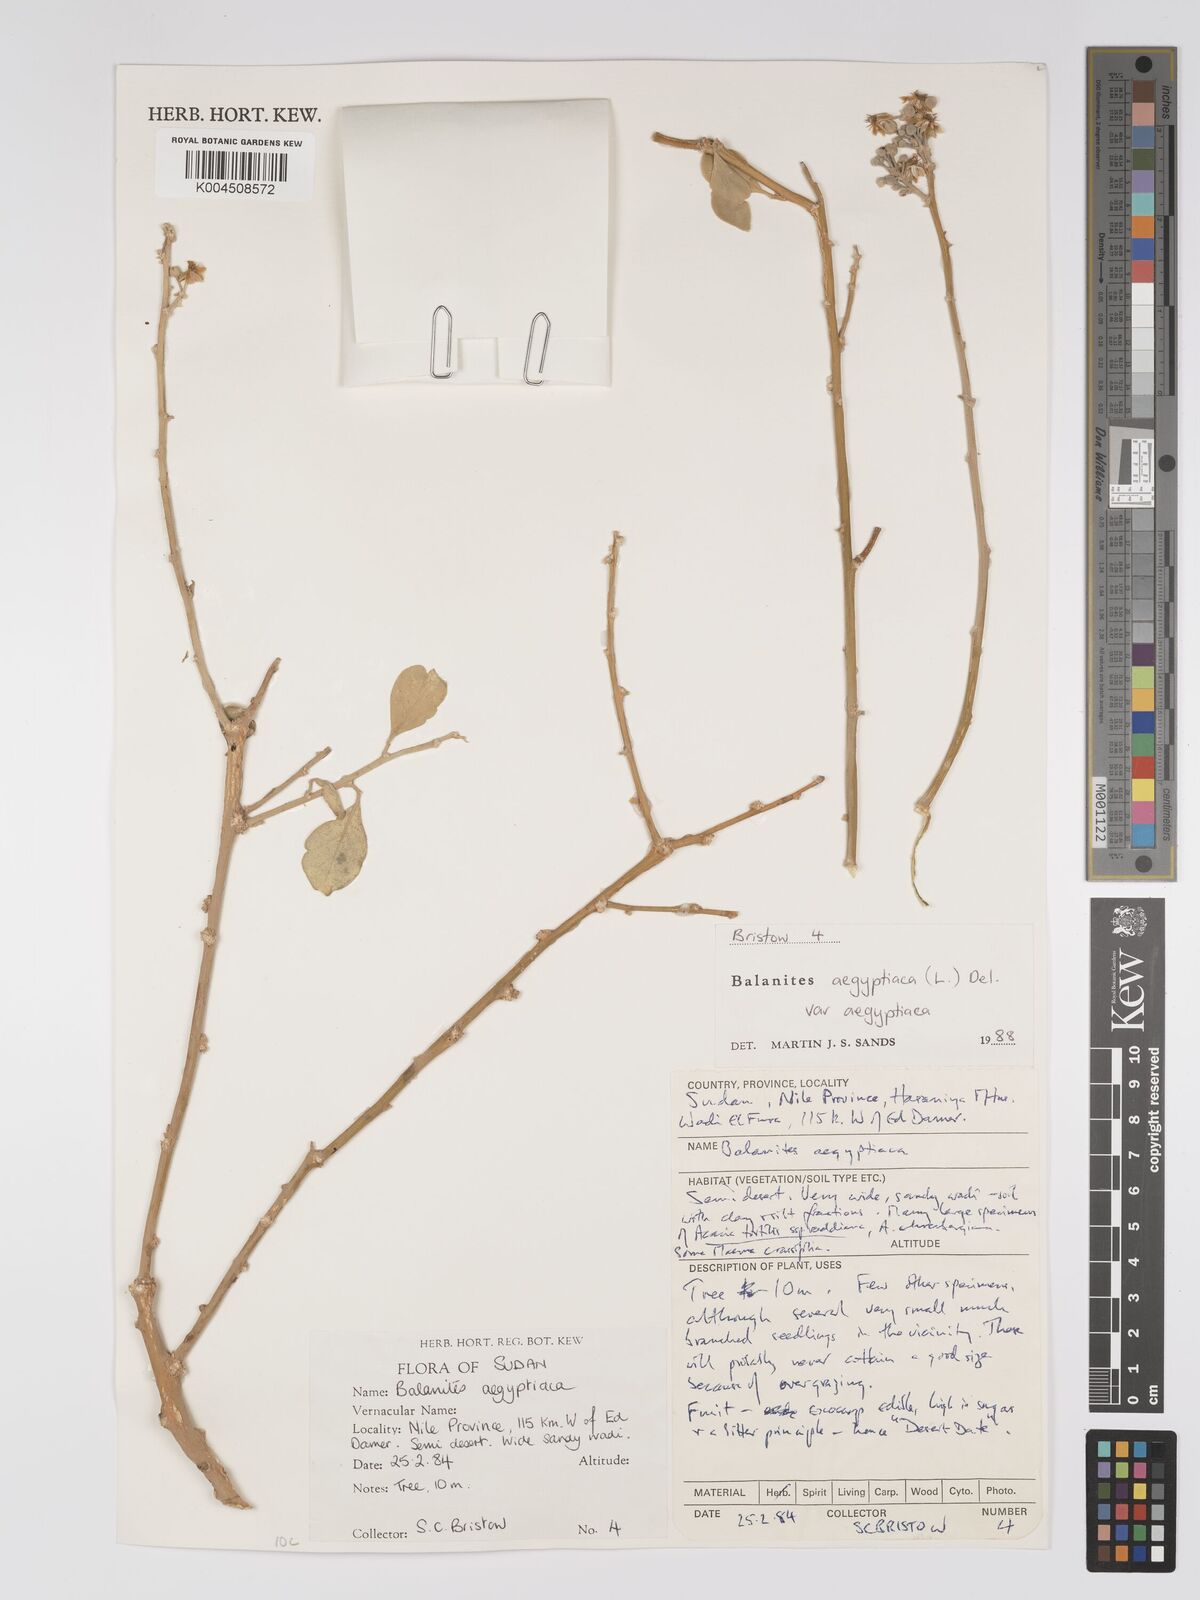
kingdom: Plantae
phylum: Tracheophyta
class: Magnoliopsida
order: Zygophyllales
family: Zygophyllaceae
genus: Balanites
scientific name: Balanites aegyptiaca
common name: Balanites
